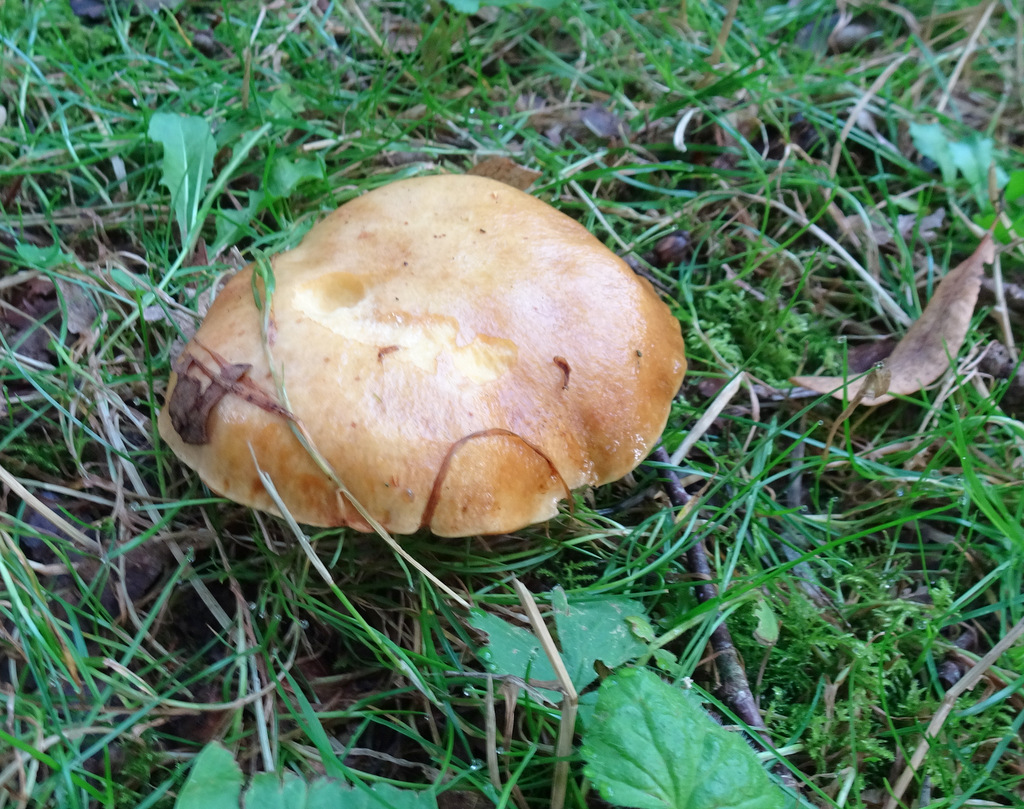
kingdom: Fungi
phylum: Basidiomycota
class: Agaricomycetes
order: Boletales
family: Suillaceae
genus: Suillus
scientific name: Suillus grevillei
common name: lærke-slimrørhat
